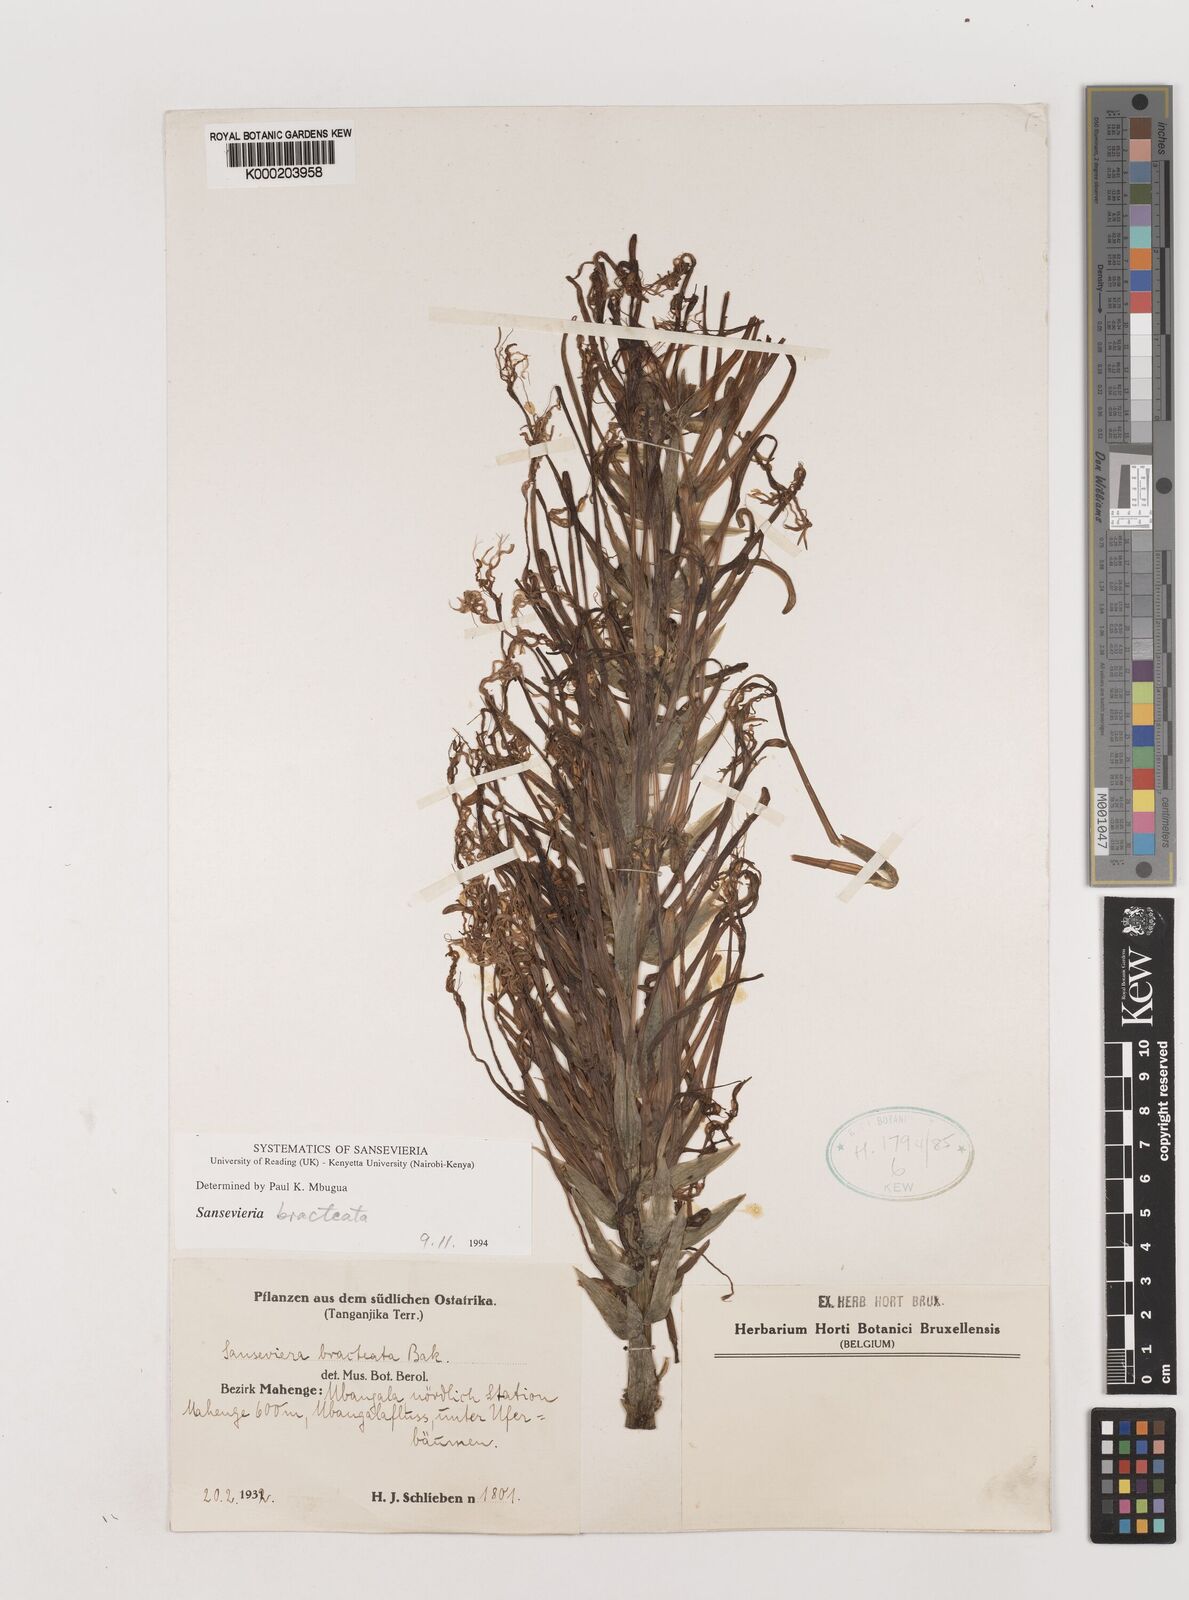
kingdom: Plantae
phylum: Tracheophyta
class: Liliopsida
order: Asparagales
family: Asparagaceae
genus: Dracaena
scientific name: Dracaena aubrytiana
